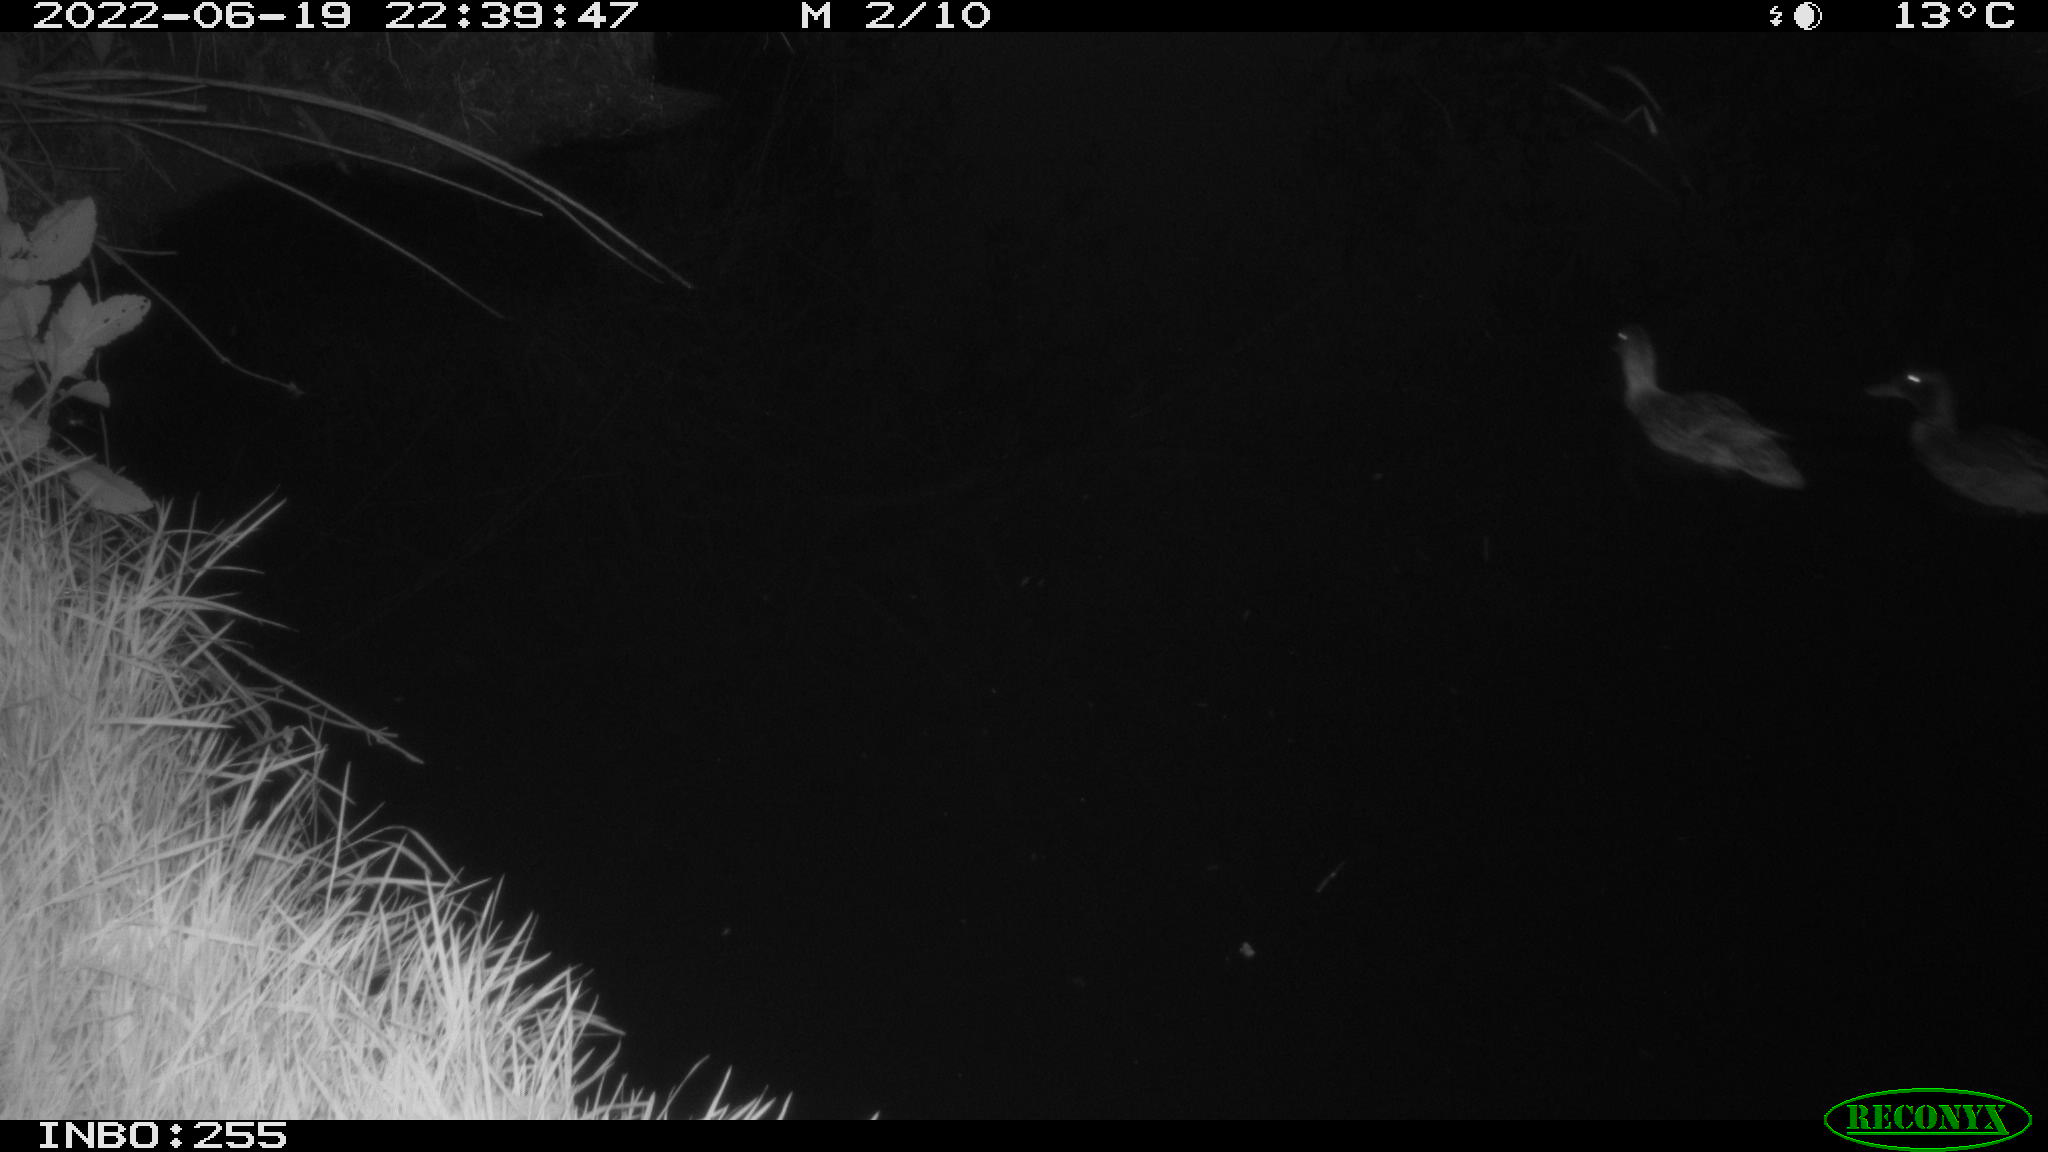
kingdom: Animalia
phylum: Chordata
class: Aves
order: Anseriformes
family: Anatidae
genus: Anas
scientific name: Anas platyrhynchos
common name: Mallard
